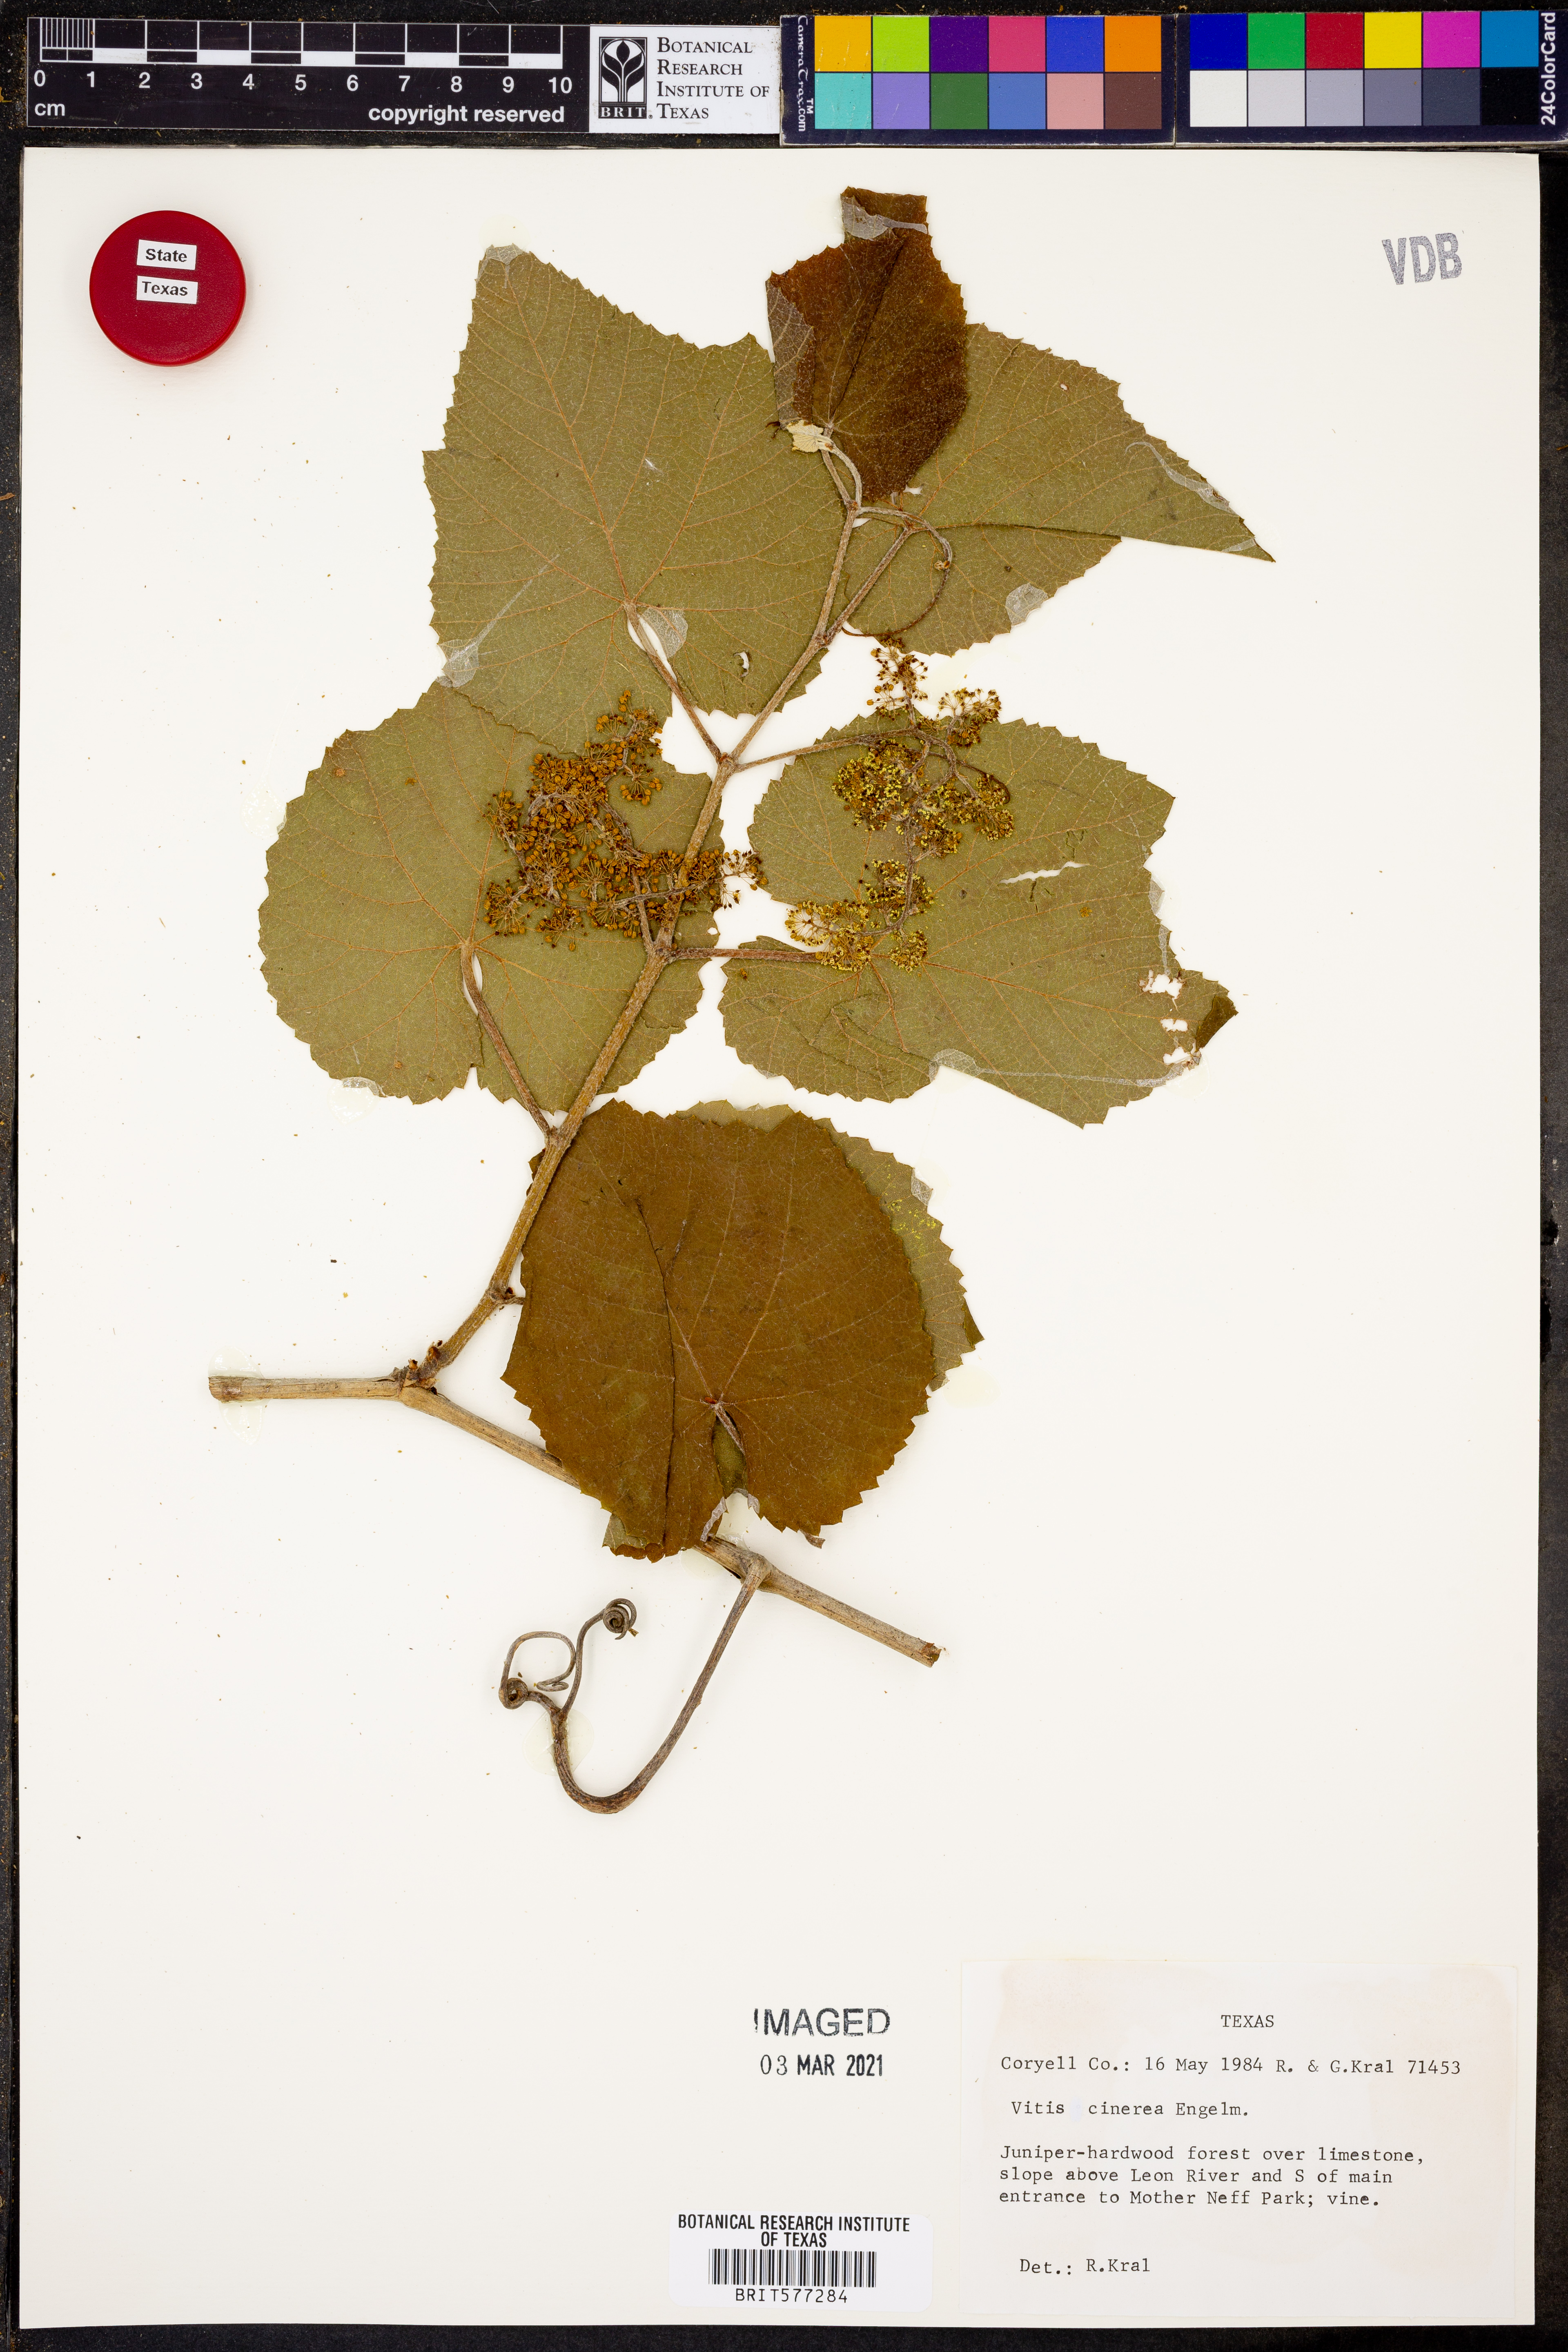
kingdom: Plantae
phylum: Tracheophyta
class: Magnoliopsida
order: Vitales
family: Vitaceae
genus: Vitis
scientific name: Vitis cinerea
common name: Ashy grape
